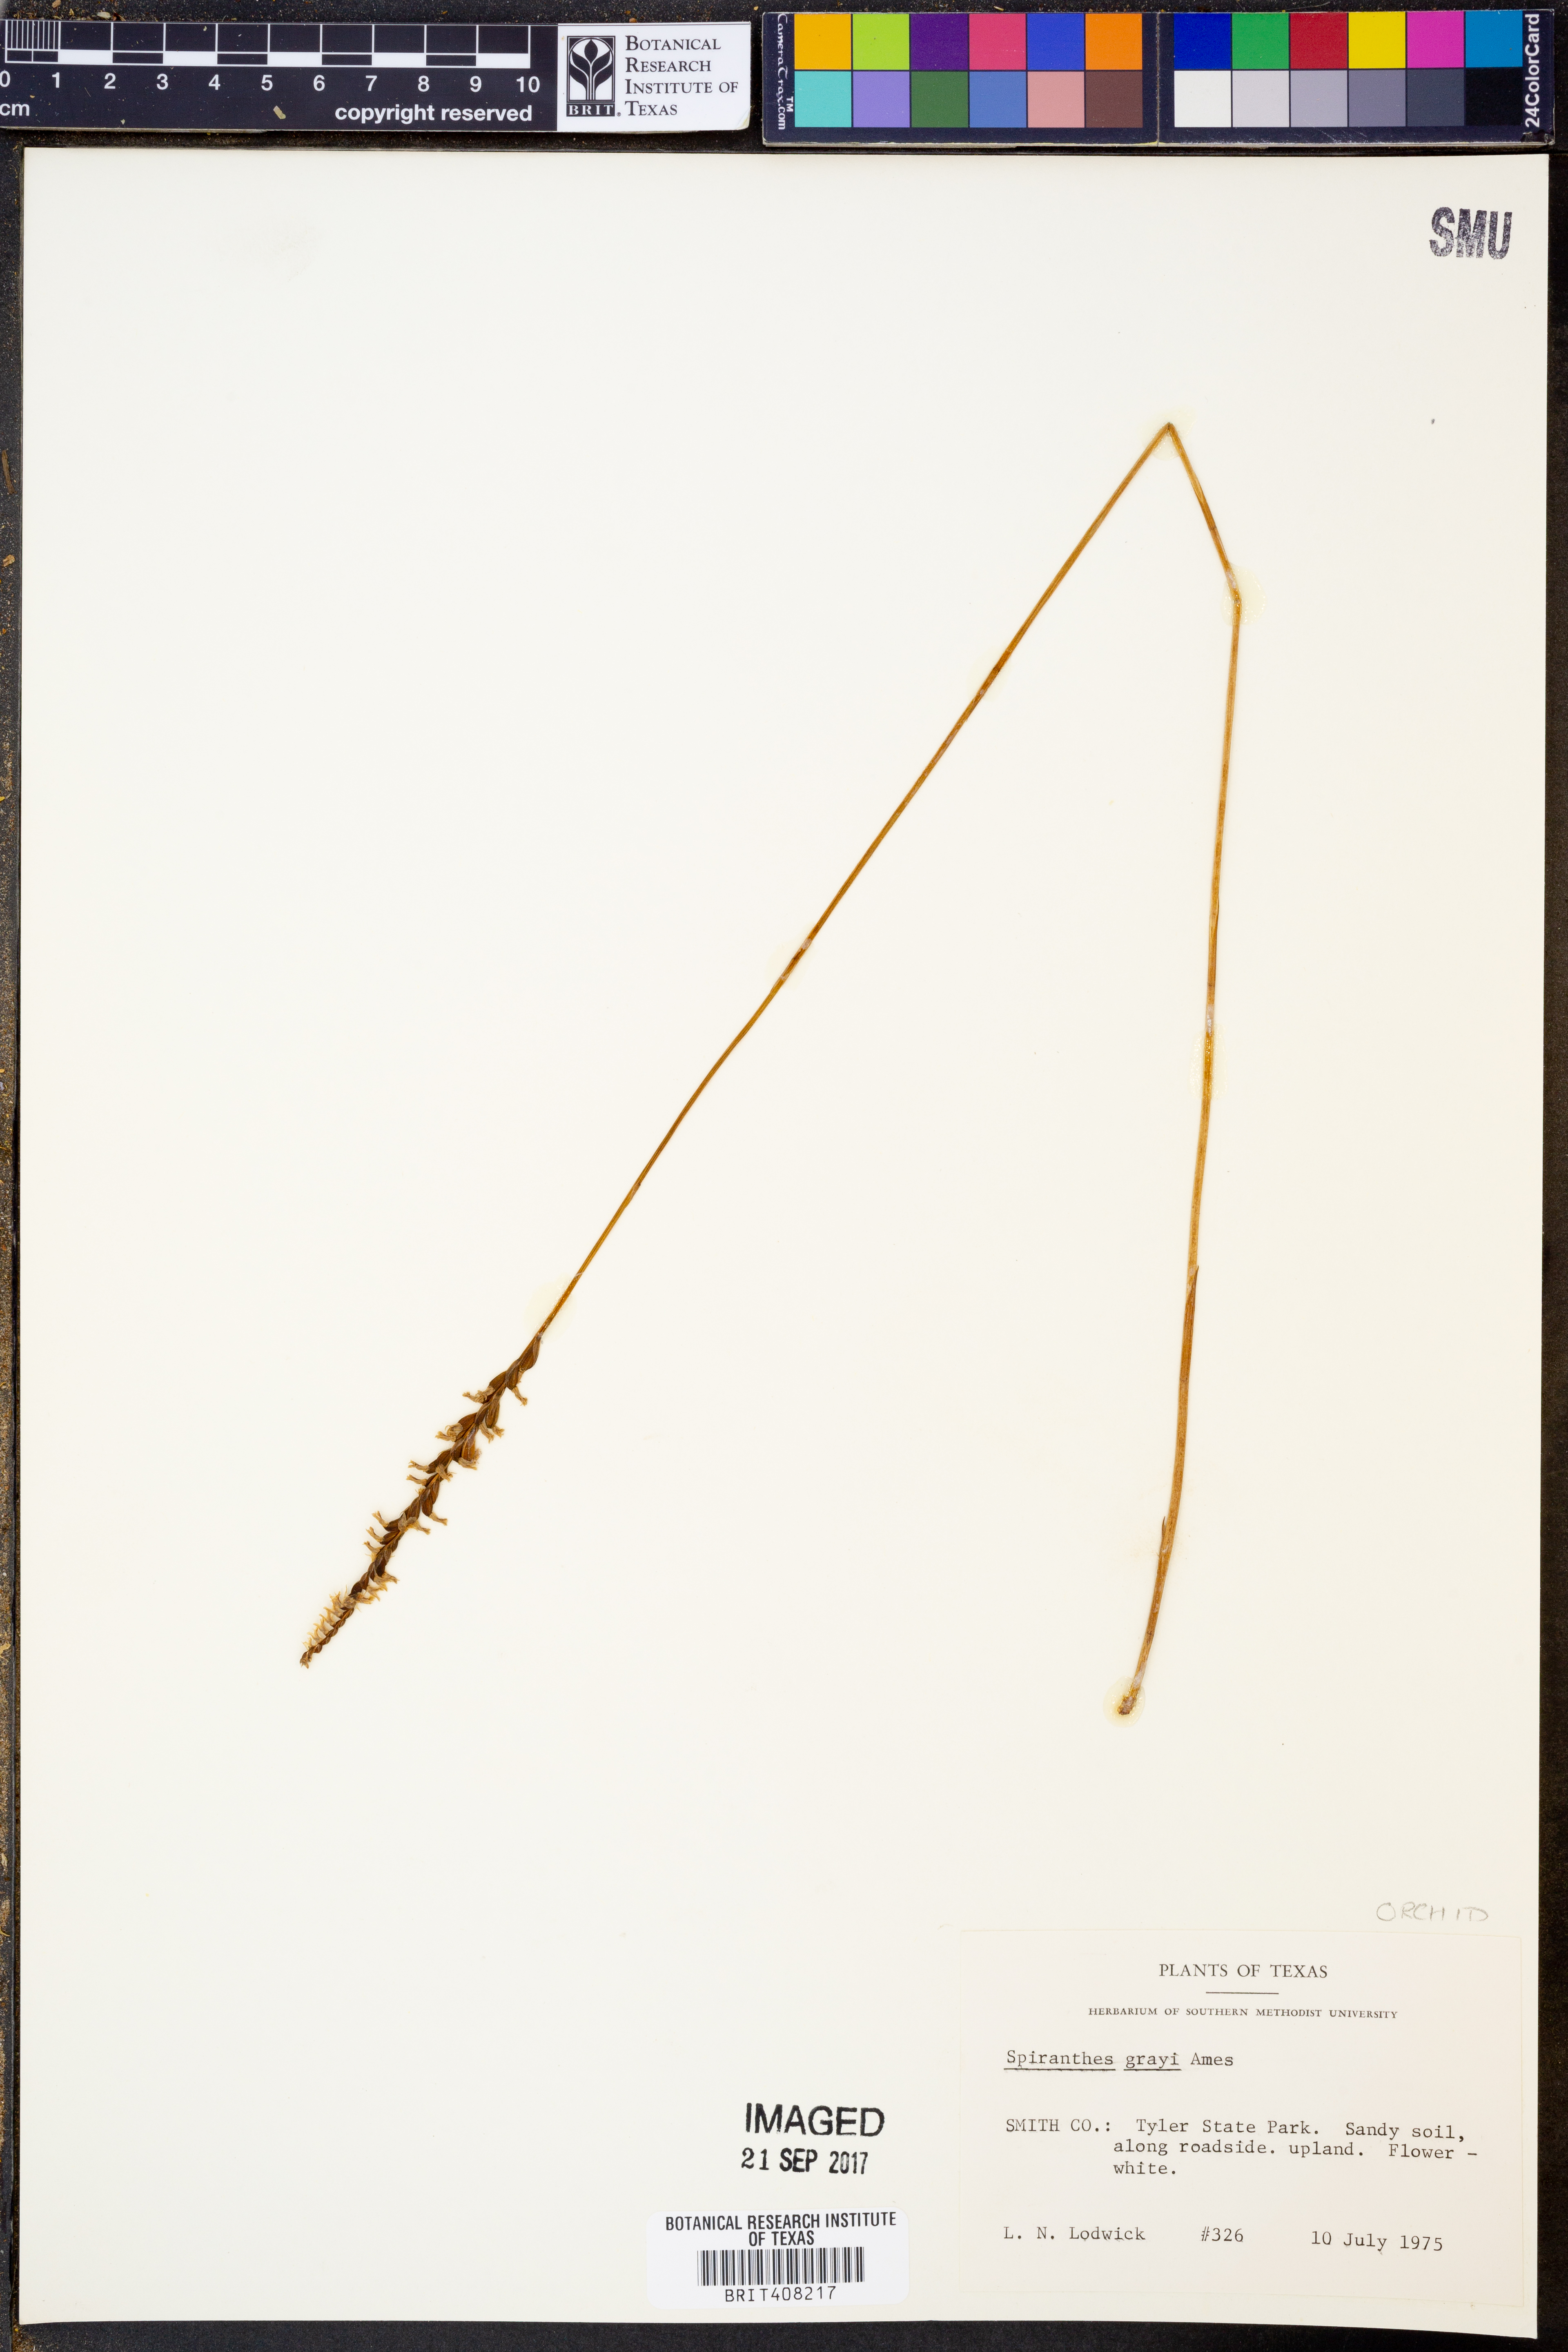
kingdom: Plantae
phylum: Tracheophyta
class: Liliopsida
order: Asparagales
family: Orchidaceae
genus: Spiranthes
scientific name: Spiranthes tuberosa
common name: Little ladies'-tresses
